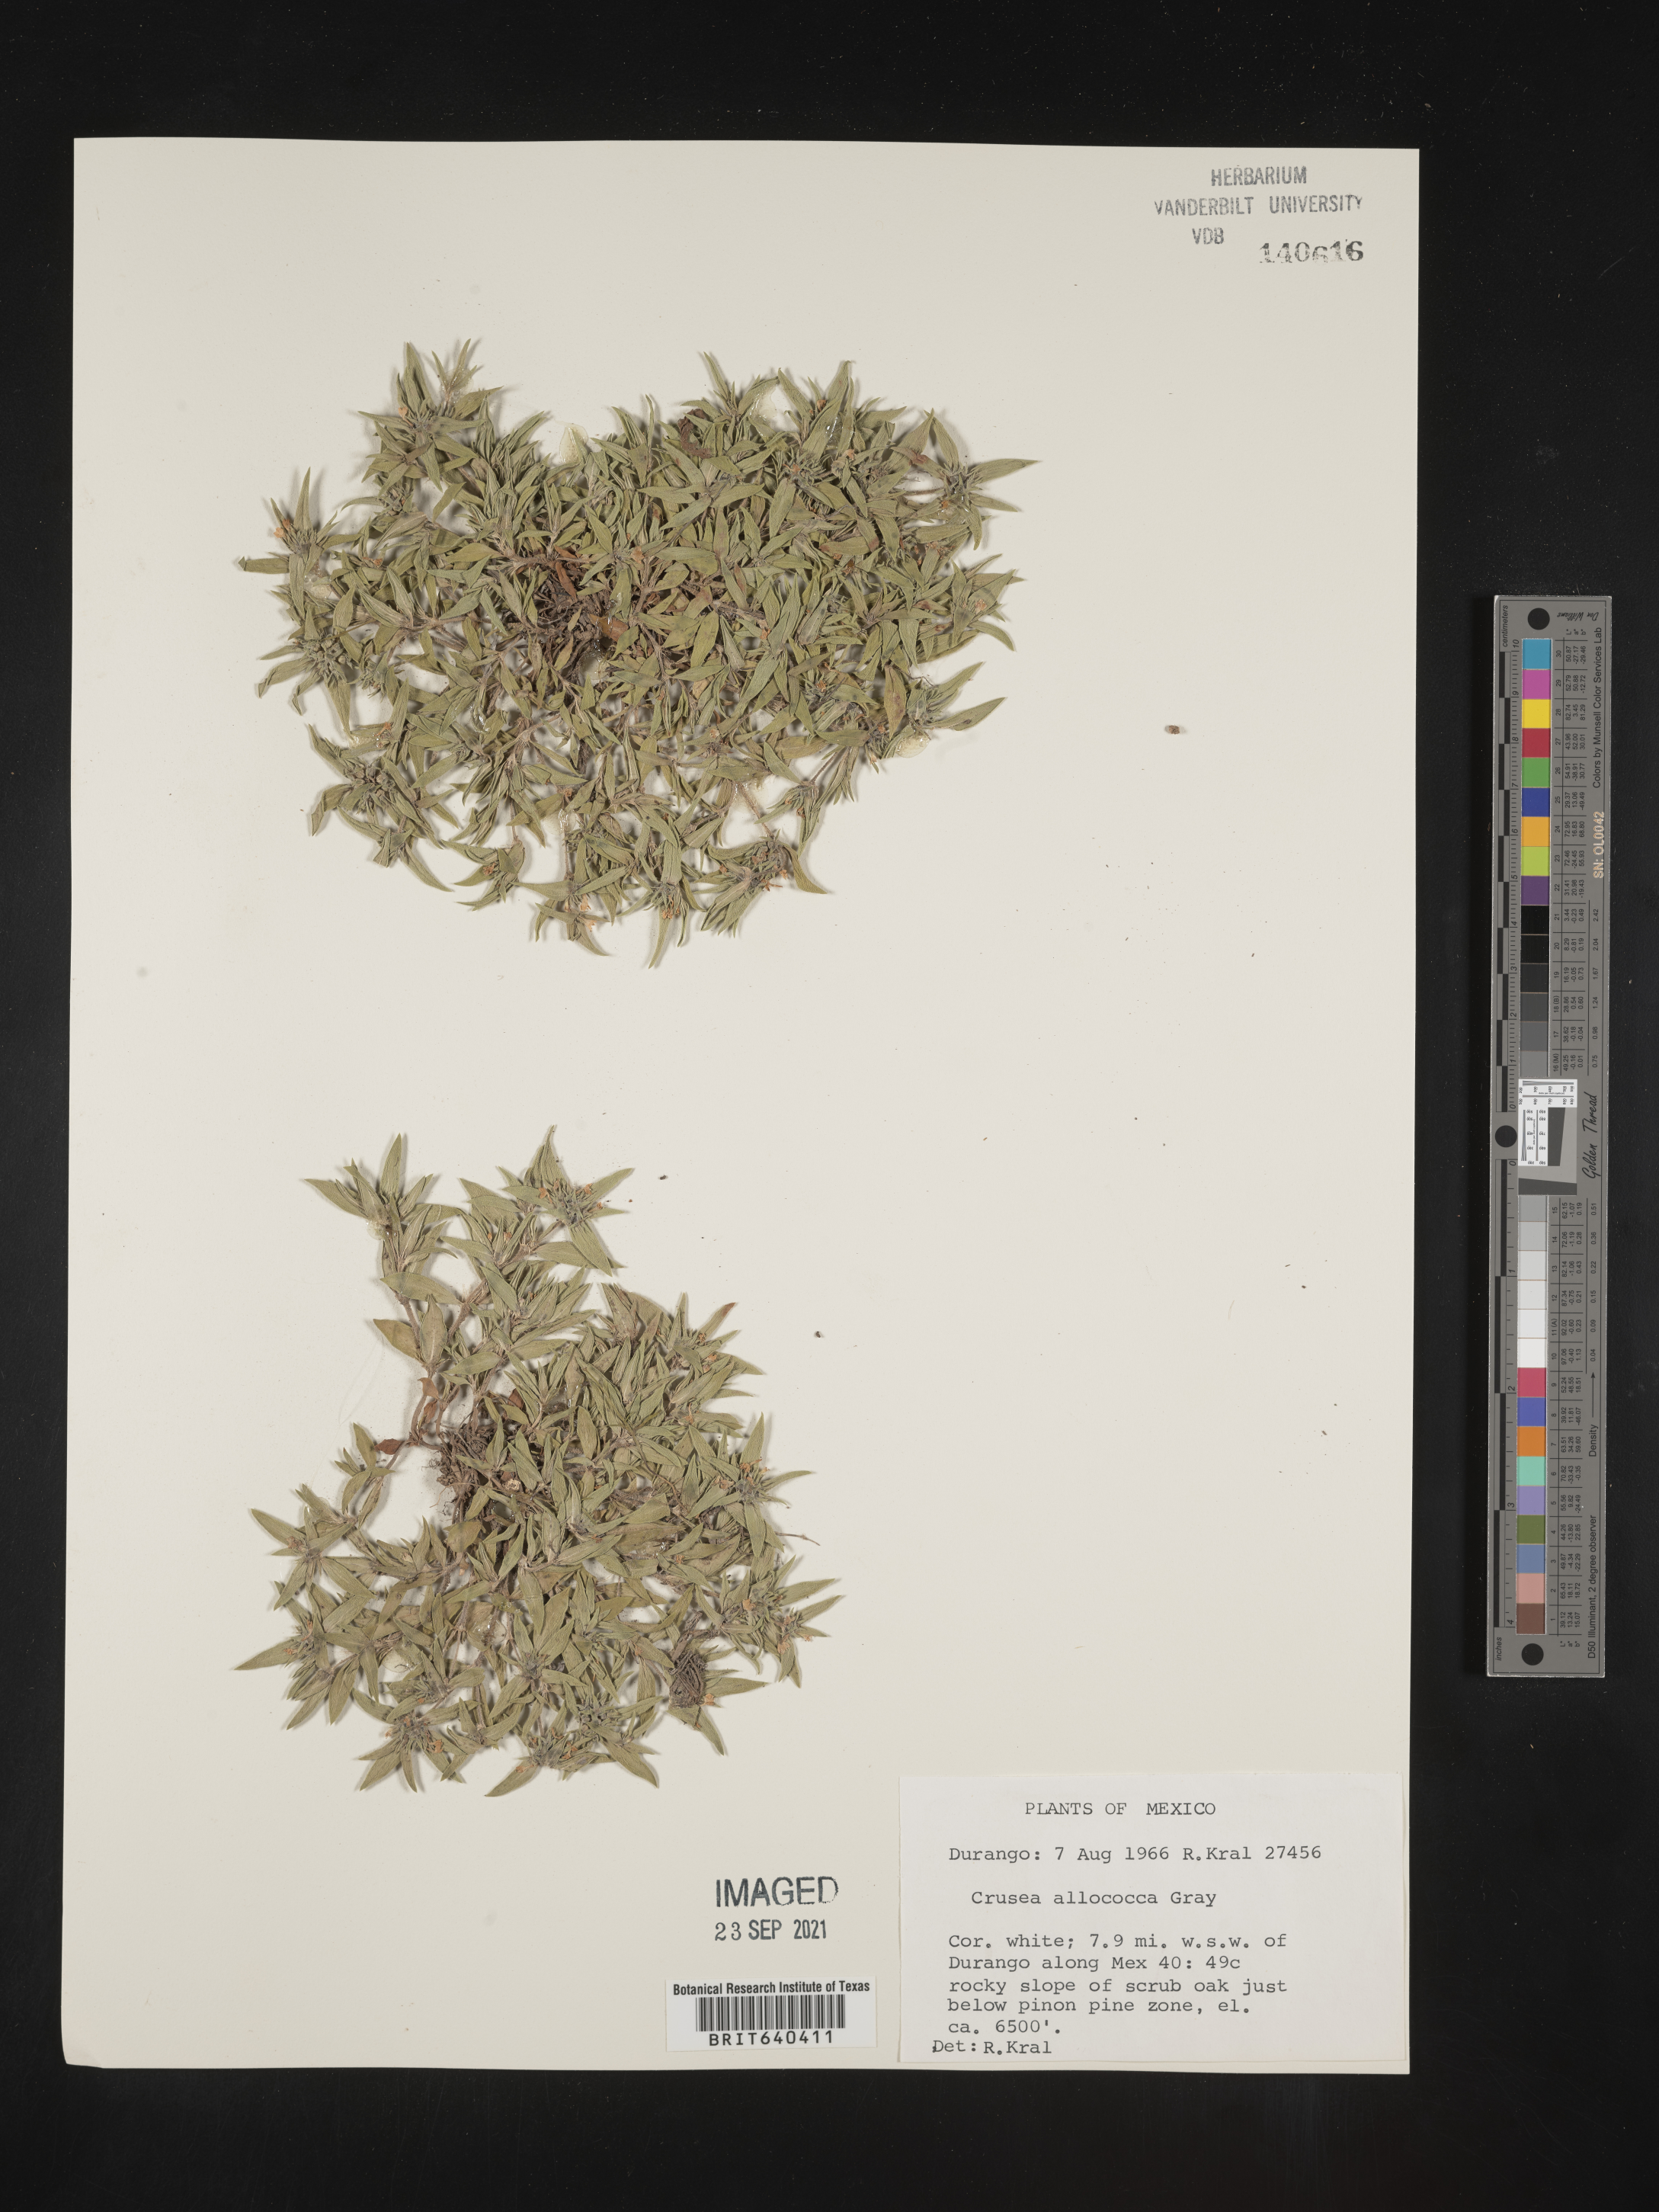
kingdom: Plantae
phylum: Tracheophyta
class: Magnoliopsida
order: Gentianales
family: Rubiaceae
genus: Crusea
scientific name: Crusea
